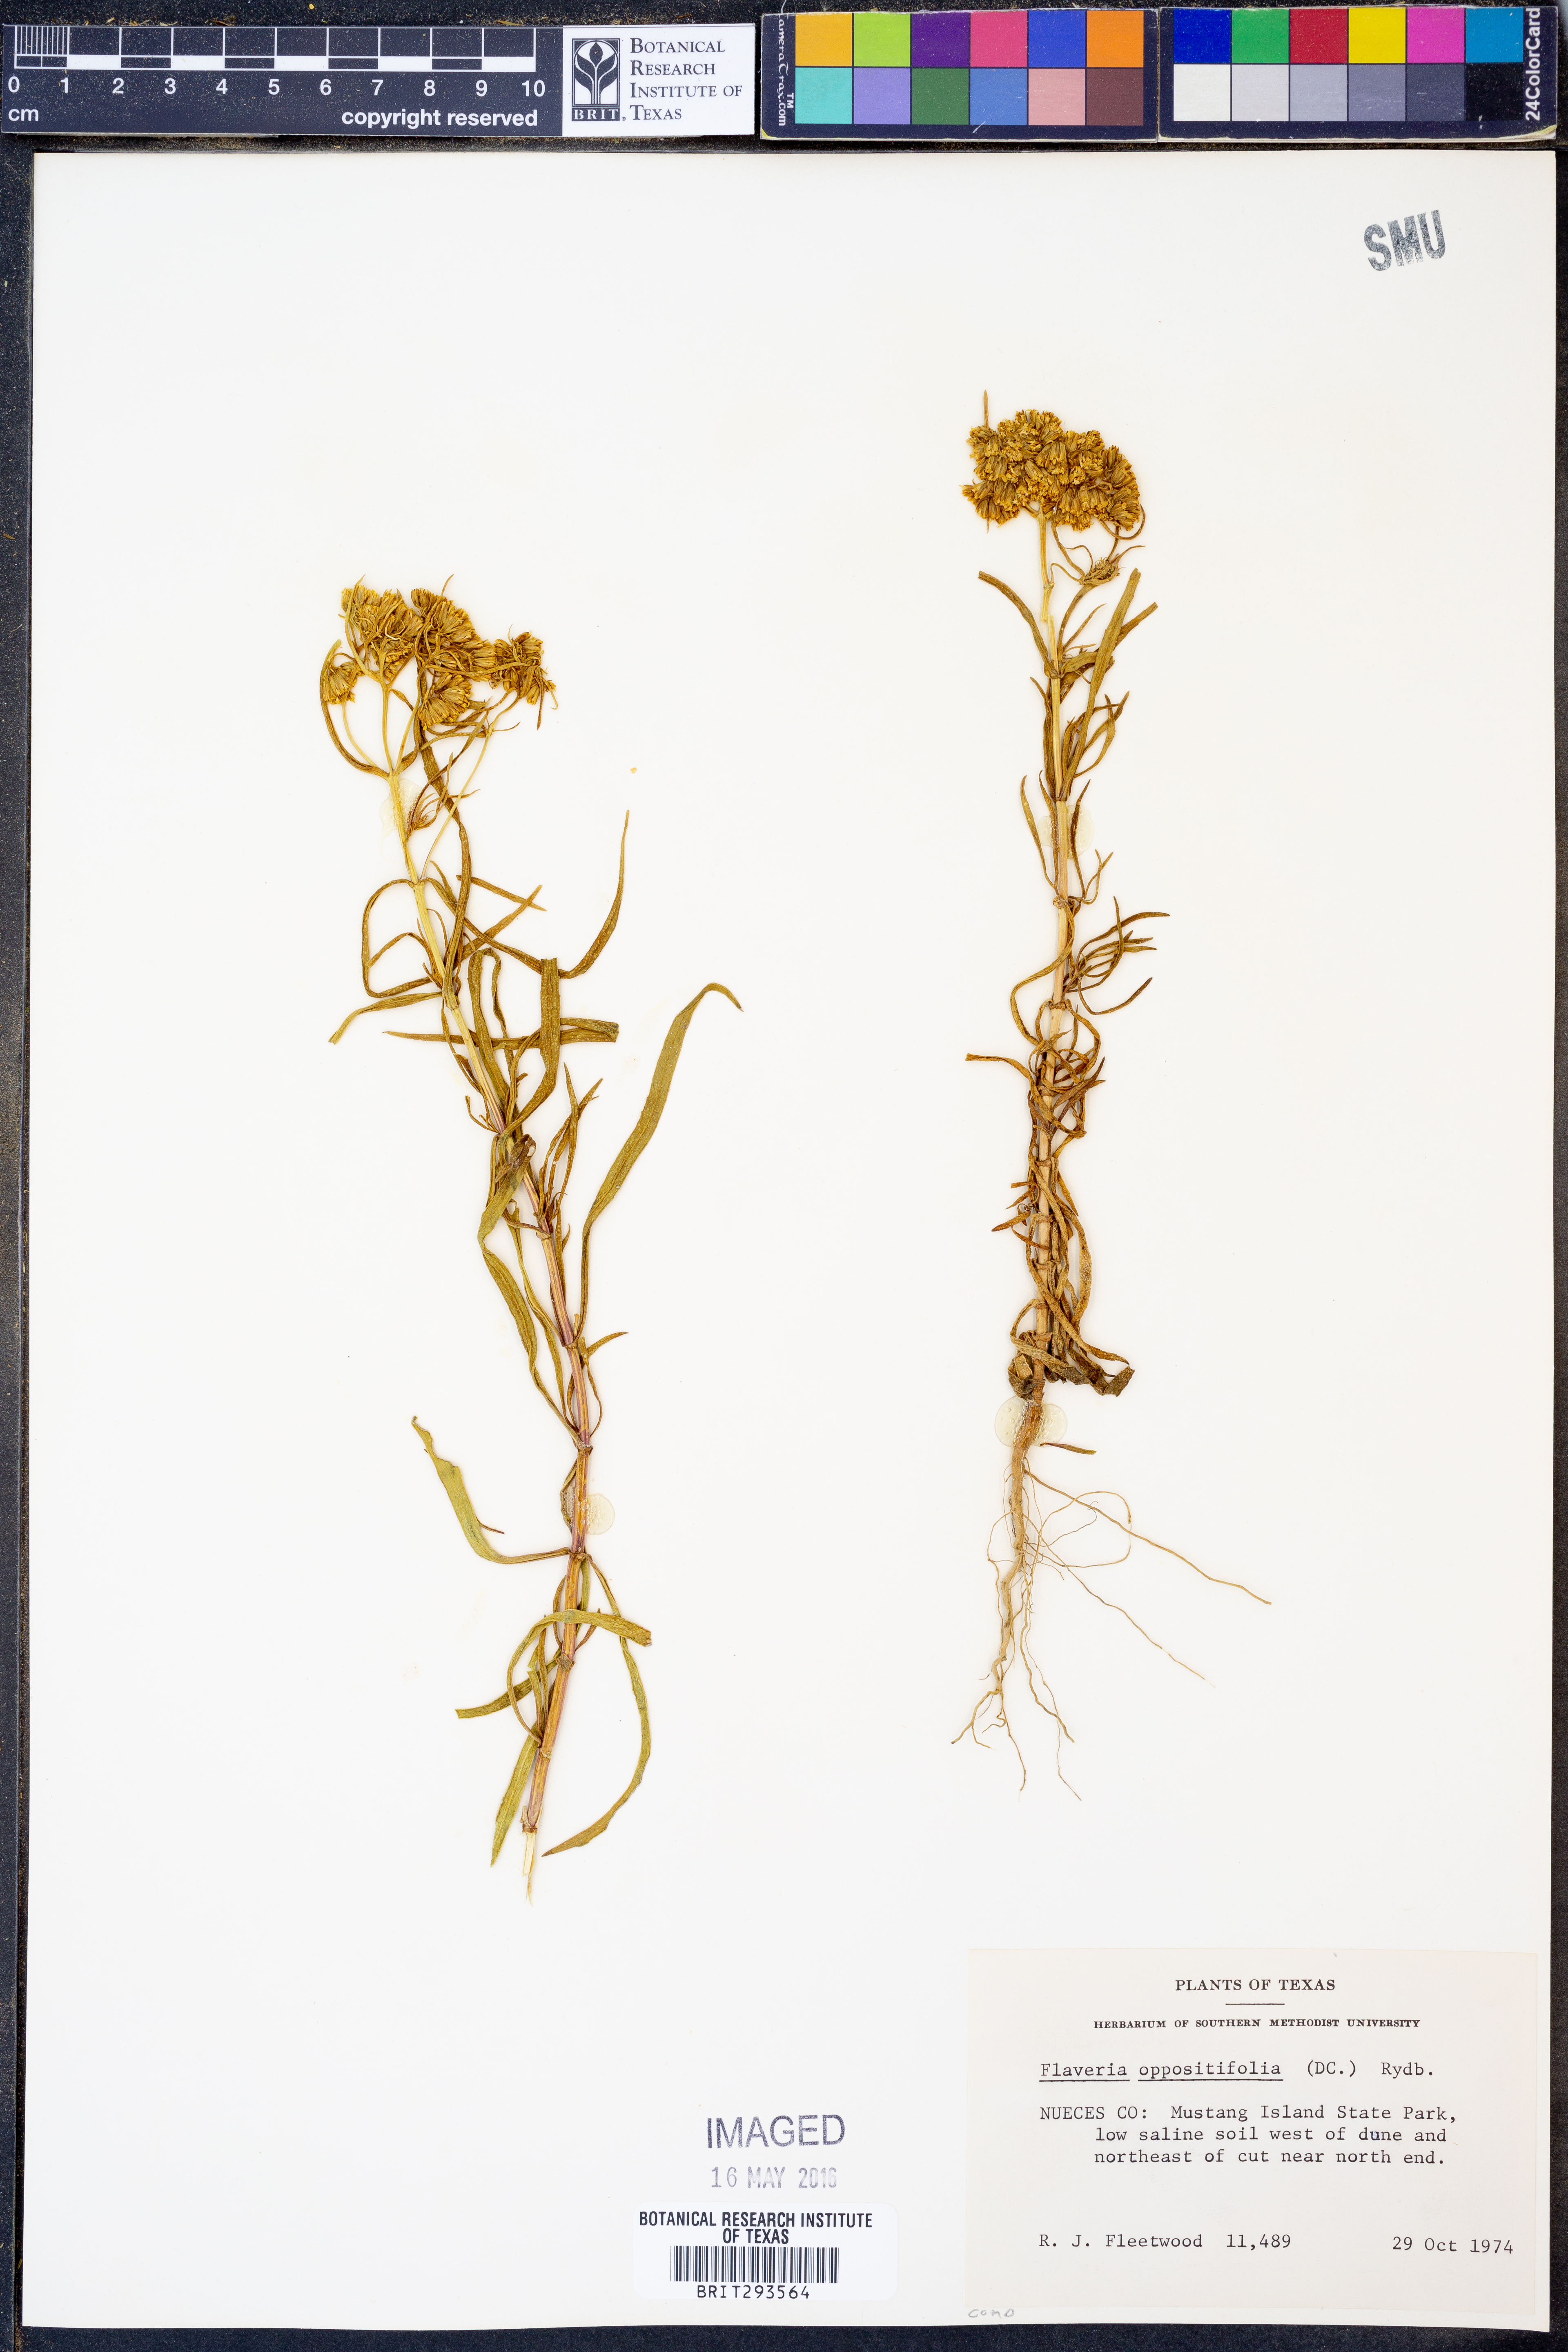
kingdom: Plantae
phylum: Tracheophyta
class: Magnoliopsida
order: Asterales
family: Asteraceae
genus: Flaveria
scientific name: Flaveria oppositifolia
